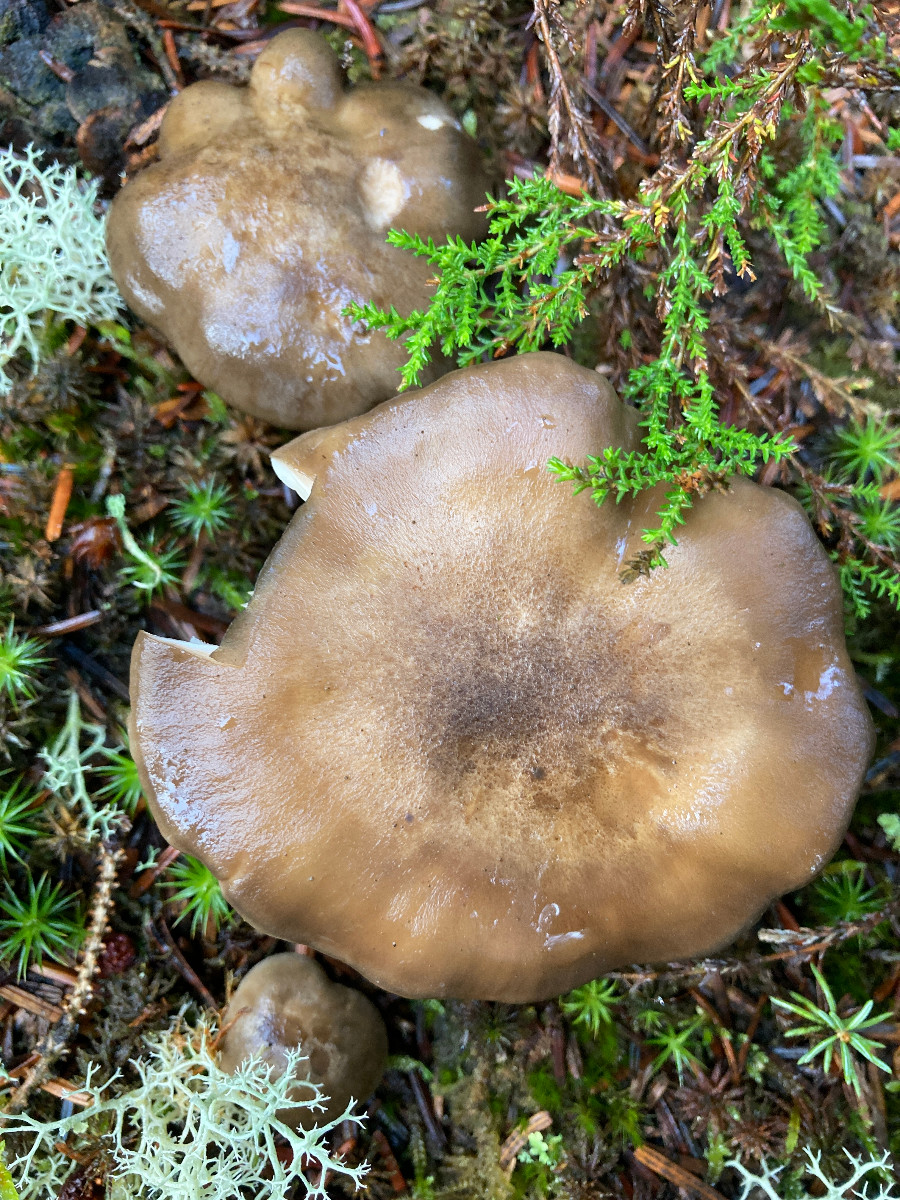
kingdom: Fungi
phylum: Basidiomycota
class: Agaricomycetes
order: Agaricales
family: Lyophyllaceae
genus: Lyophyllum
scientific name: Lyophyllum
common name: gråblad
